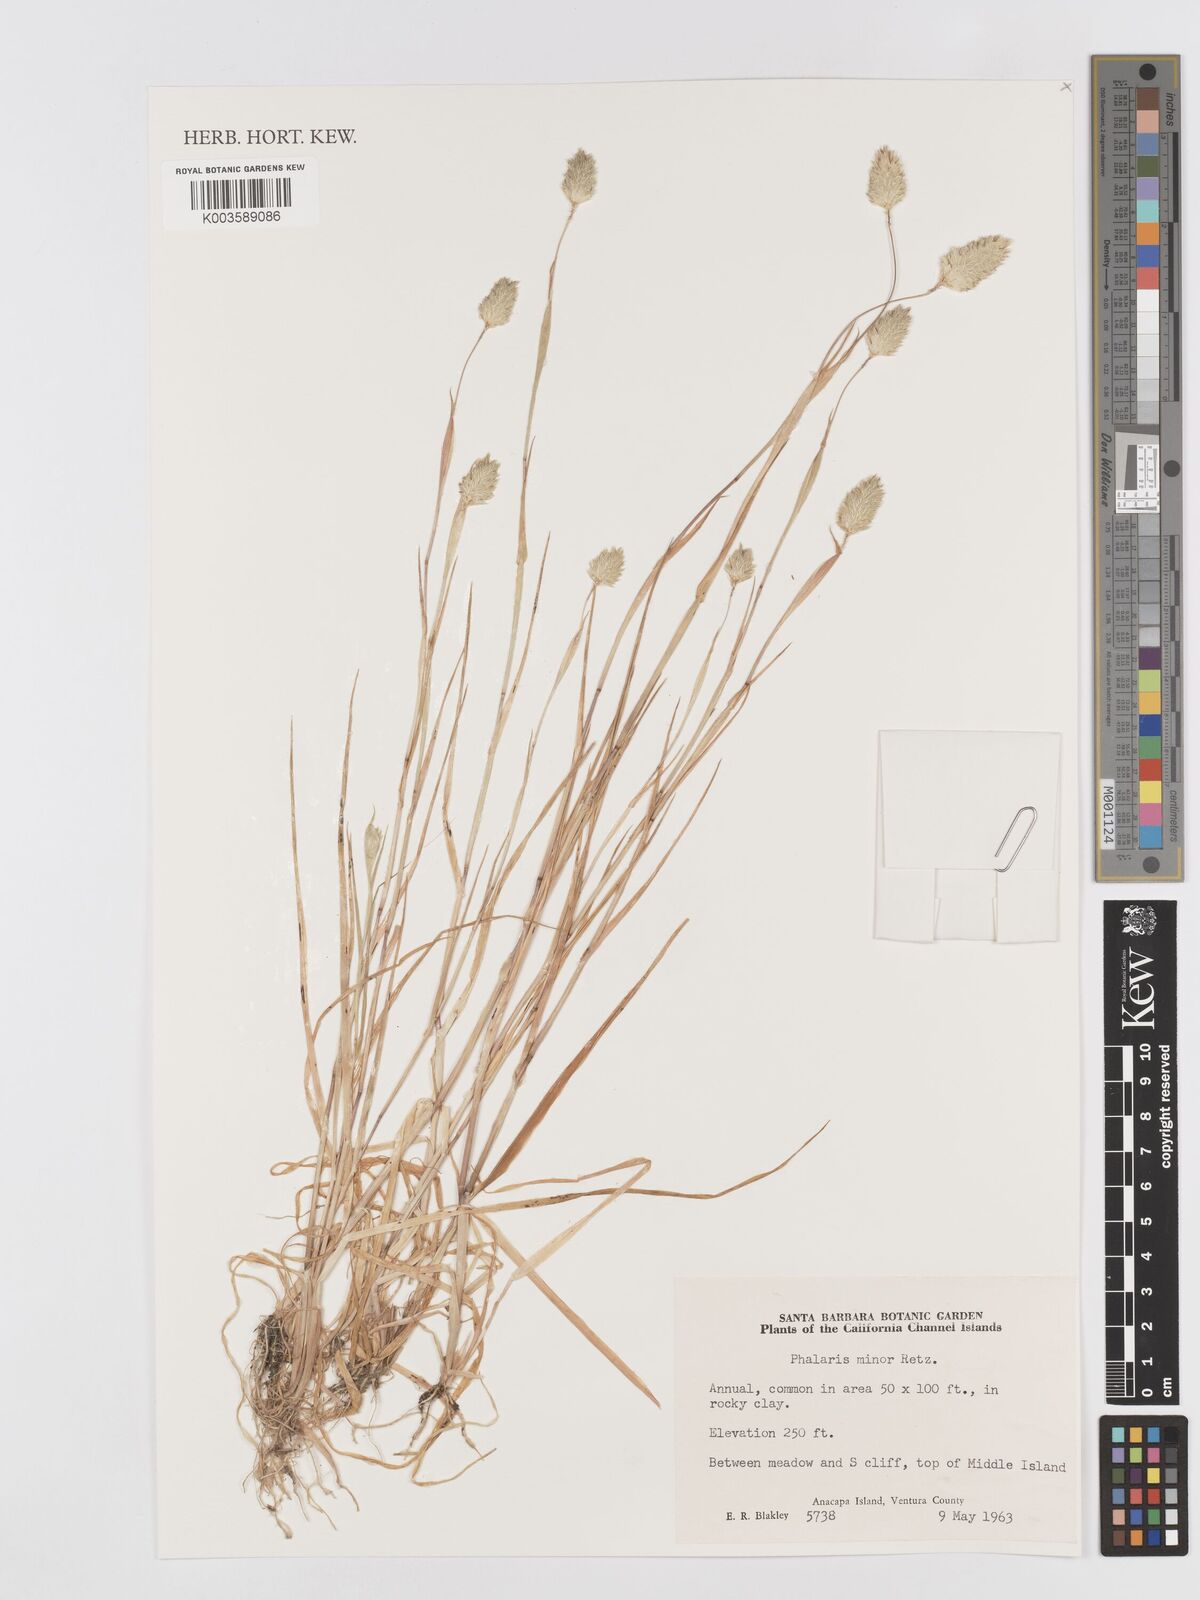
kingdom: Plantae
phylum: Tracheophyta
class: Liliopsida
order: Poales
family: Poaceae
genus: Phalaris
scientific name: Phalaris minor
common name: Littleseed canarygrass
